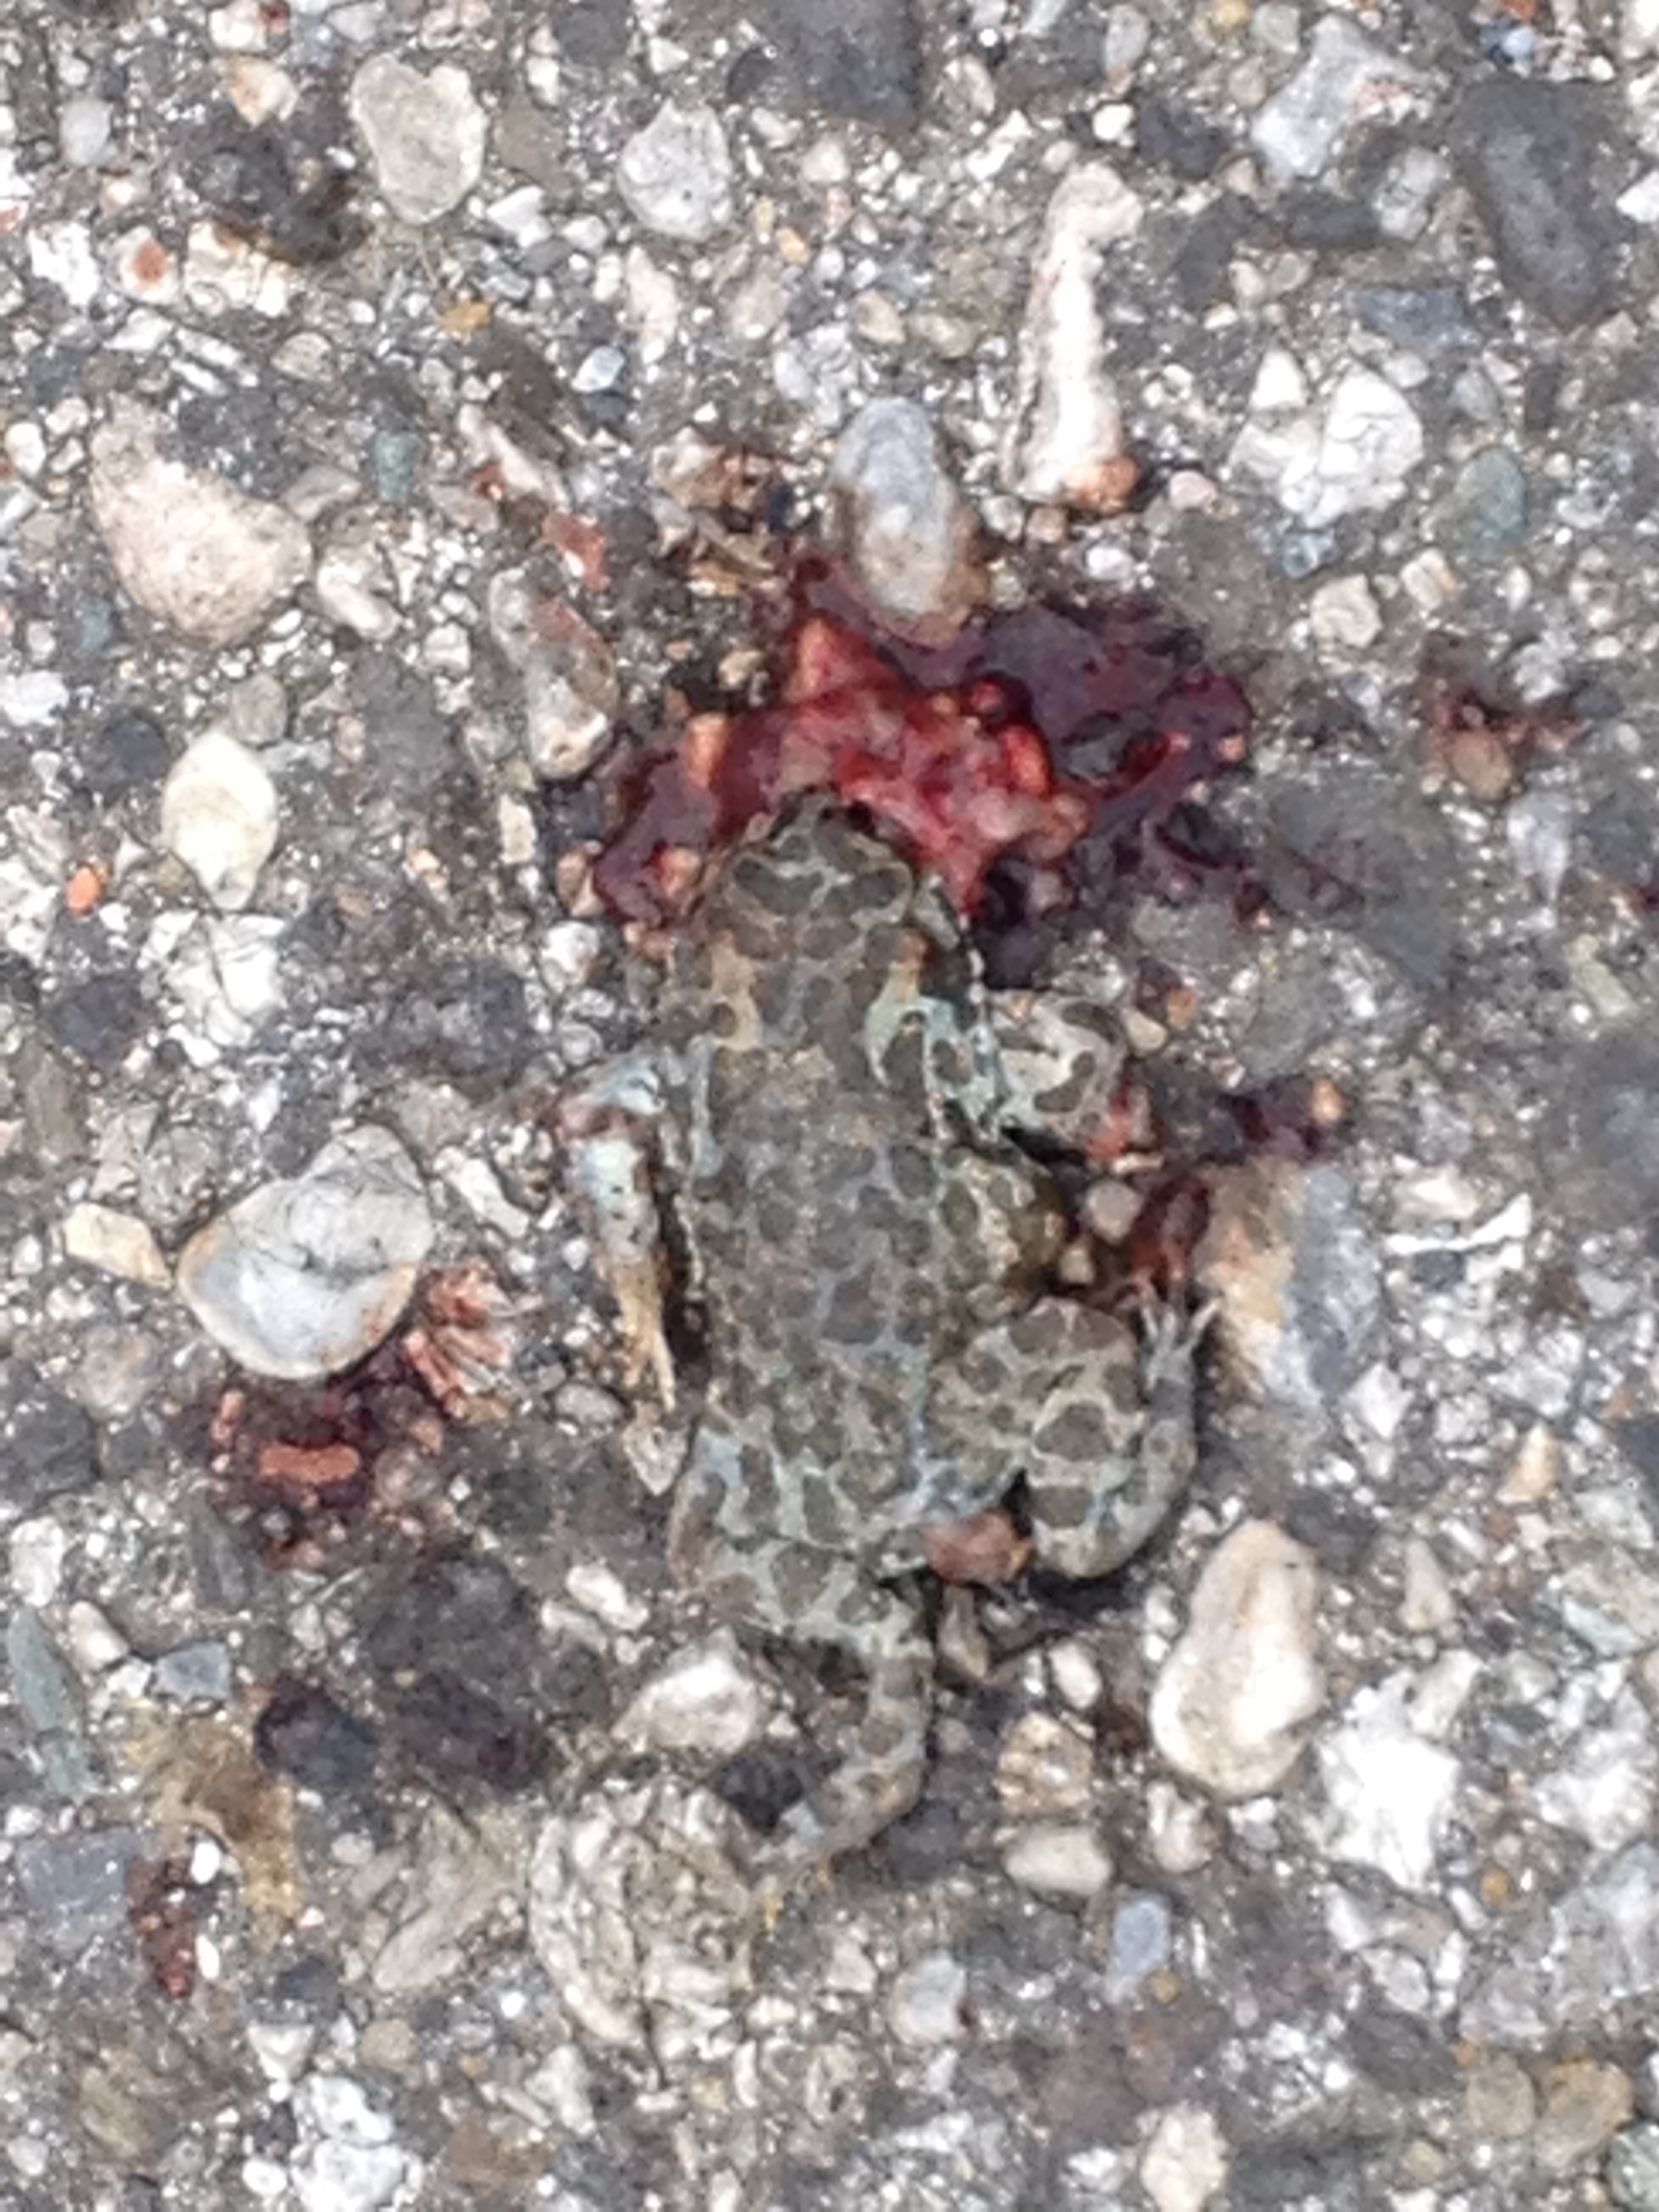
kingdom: Animalia
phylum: Chordata
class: Amphibia
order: Anura
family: Bufonidae
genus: Bufotes
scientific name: Bufotes viridis
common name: European green toad
